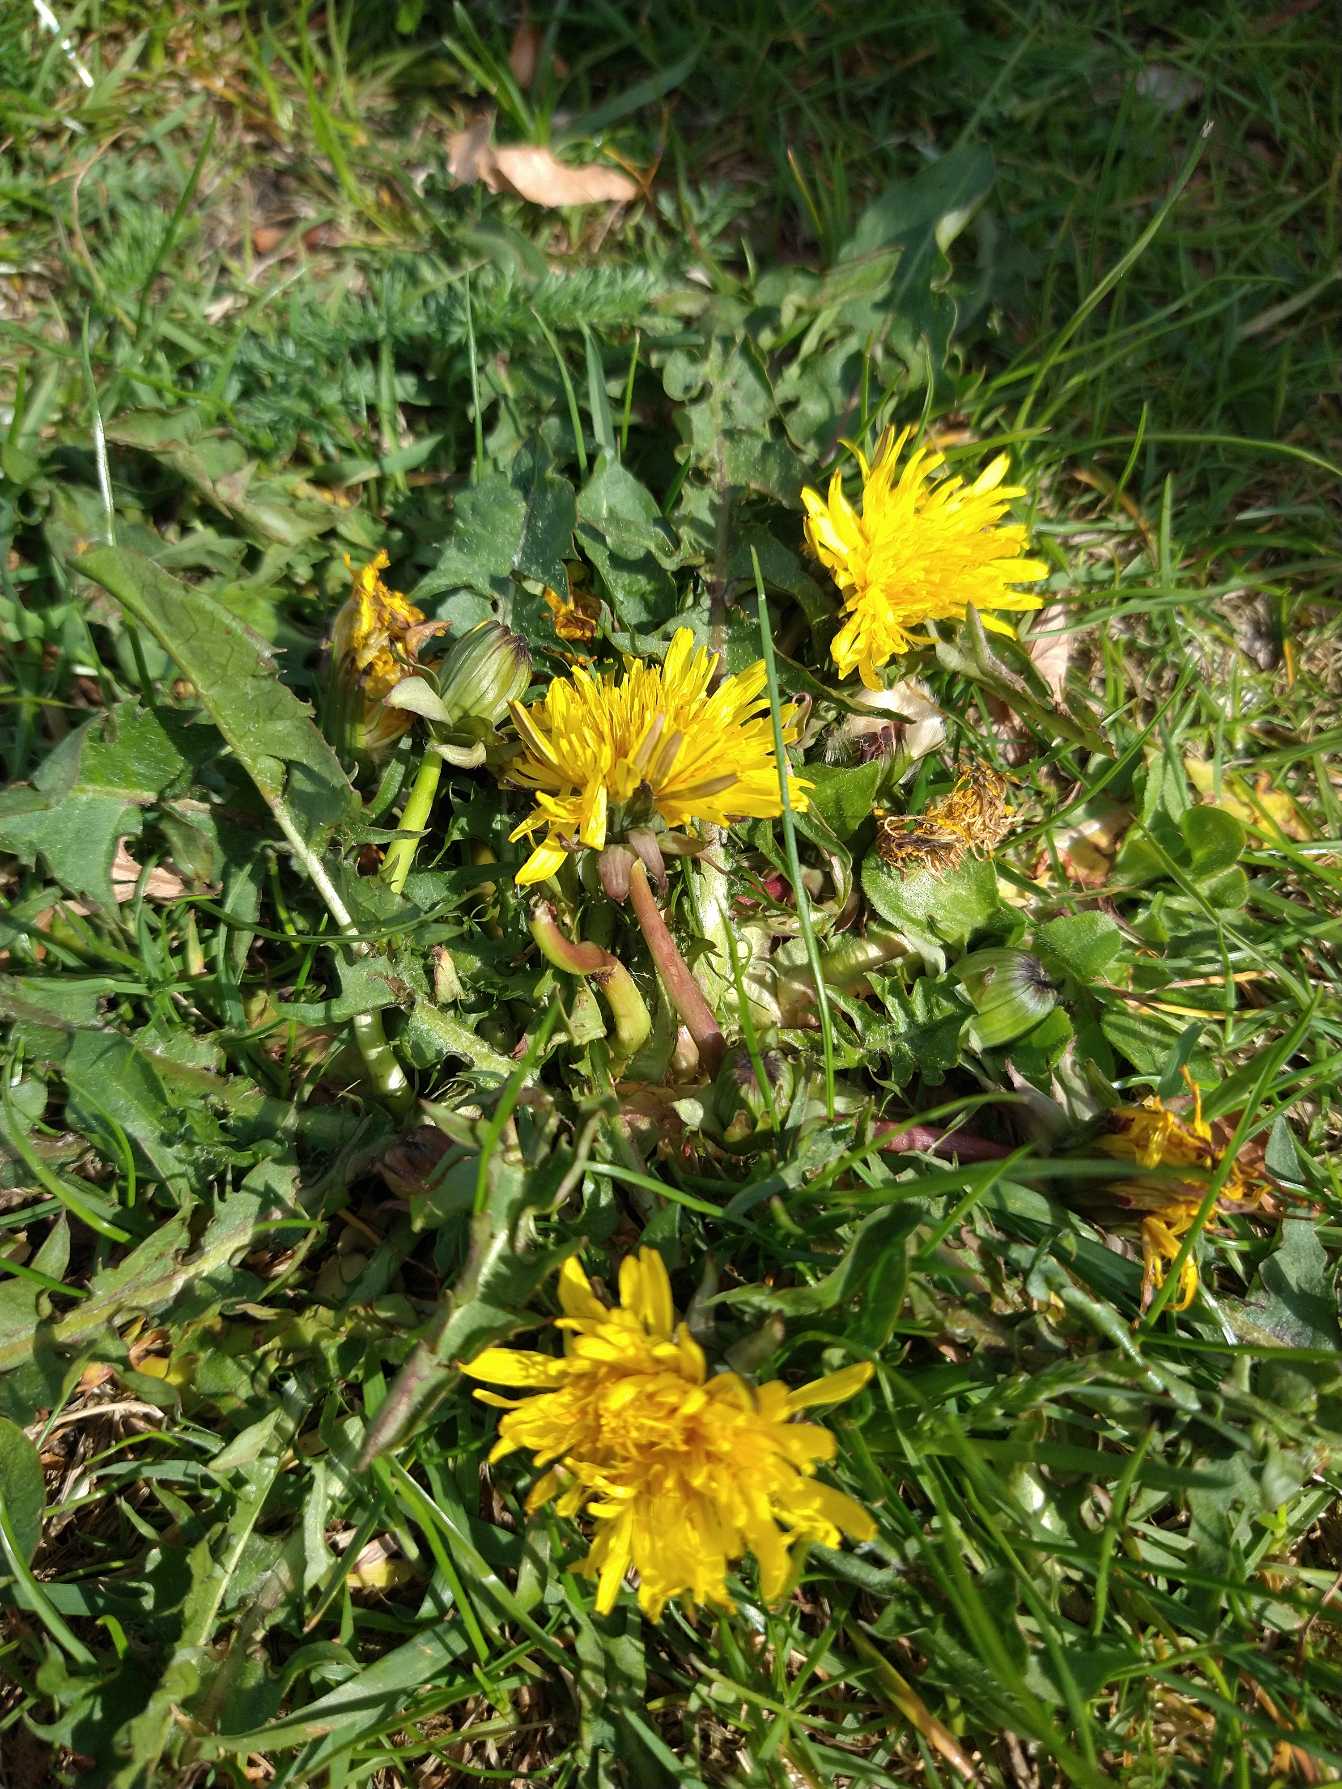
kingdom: Plantae
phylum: Tracheophyta
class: Magnoliopsida
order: Asterales
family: Asteraceae
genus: Taraxacum
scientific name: Taraxacum
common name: Mælkebøtteslægten
